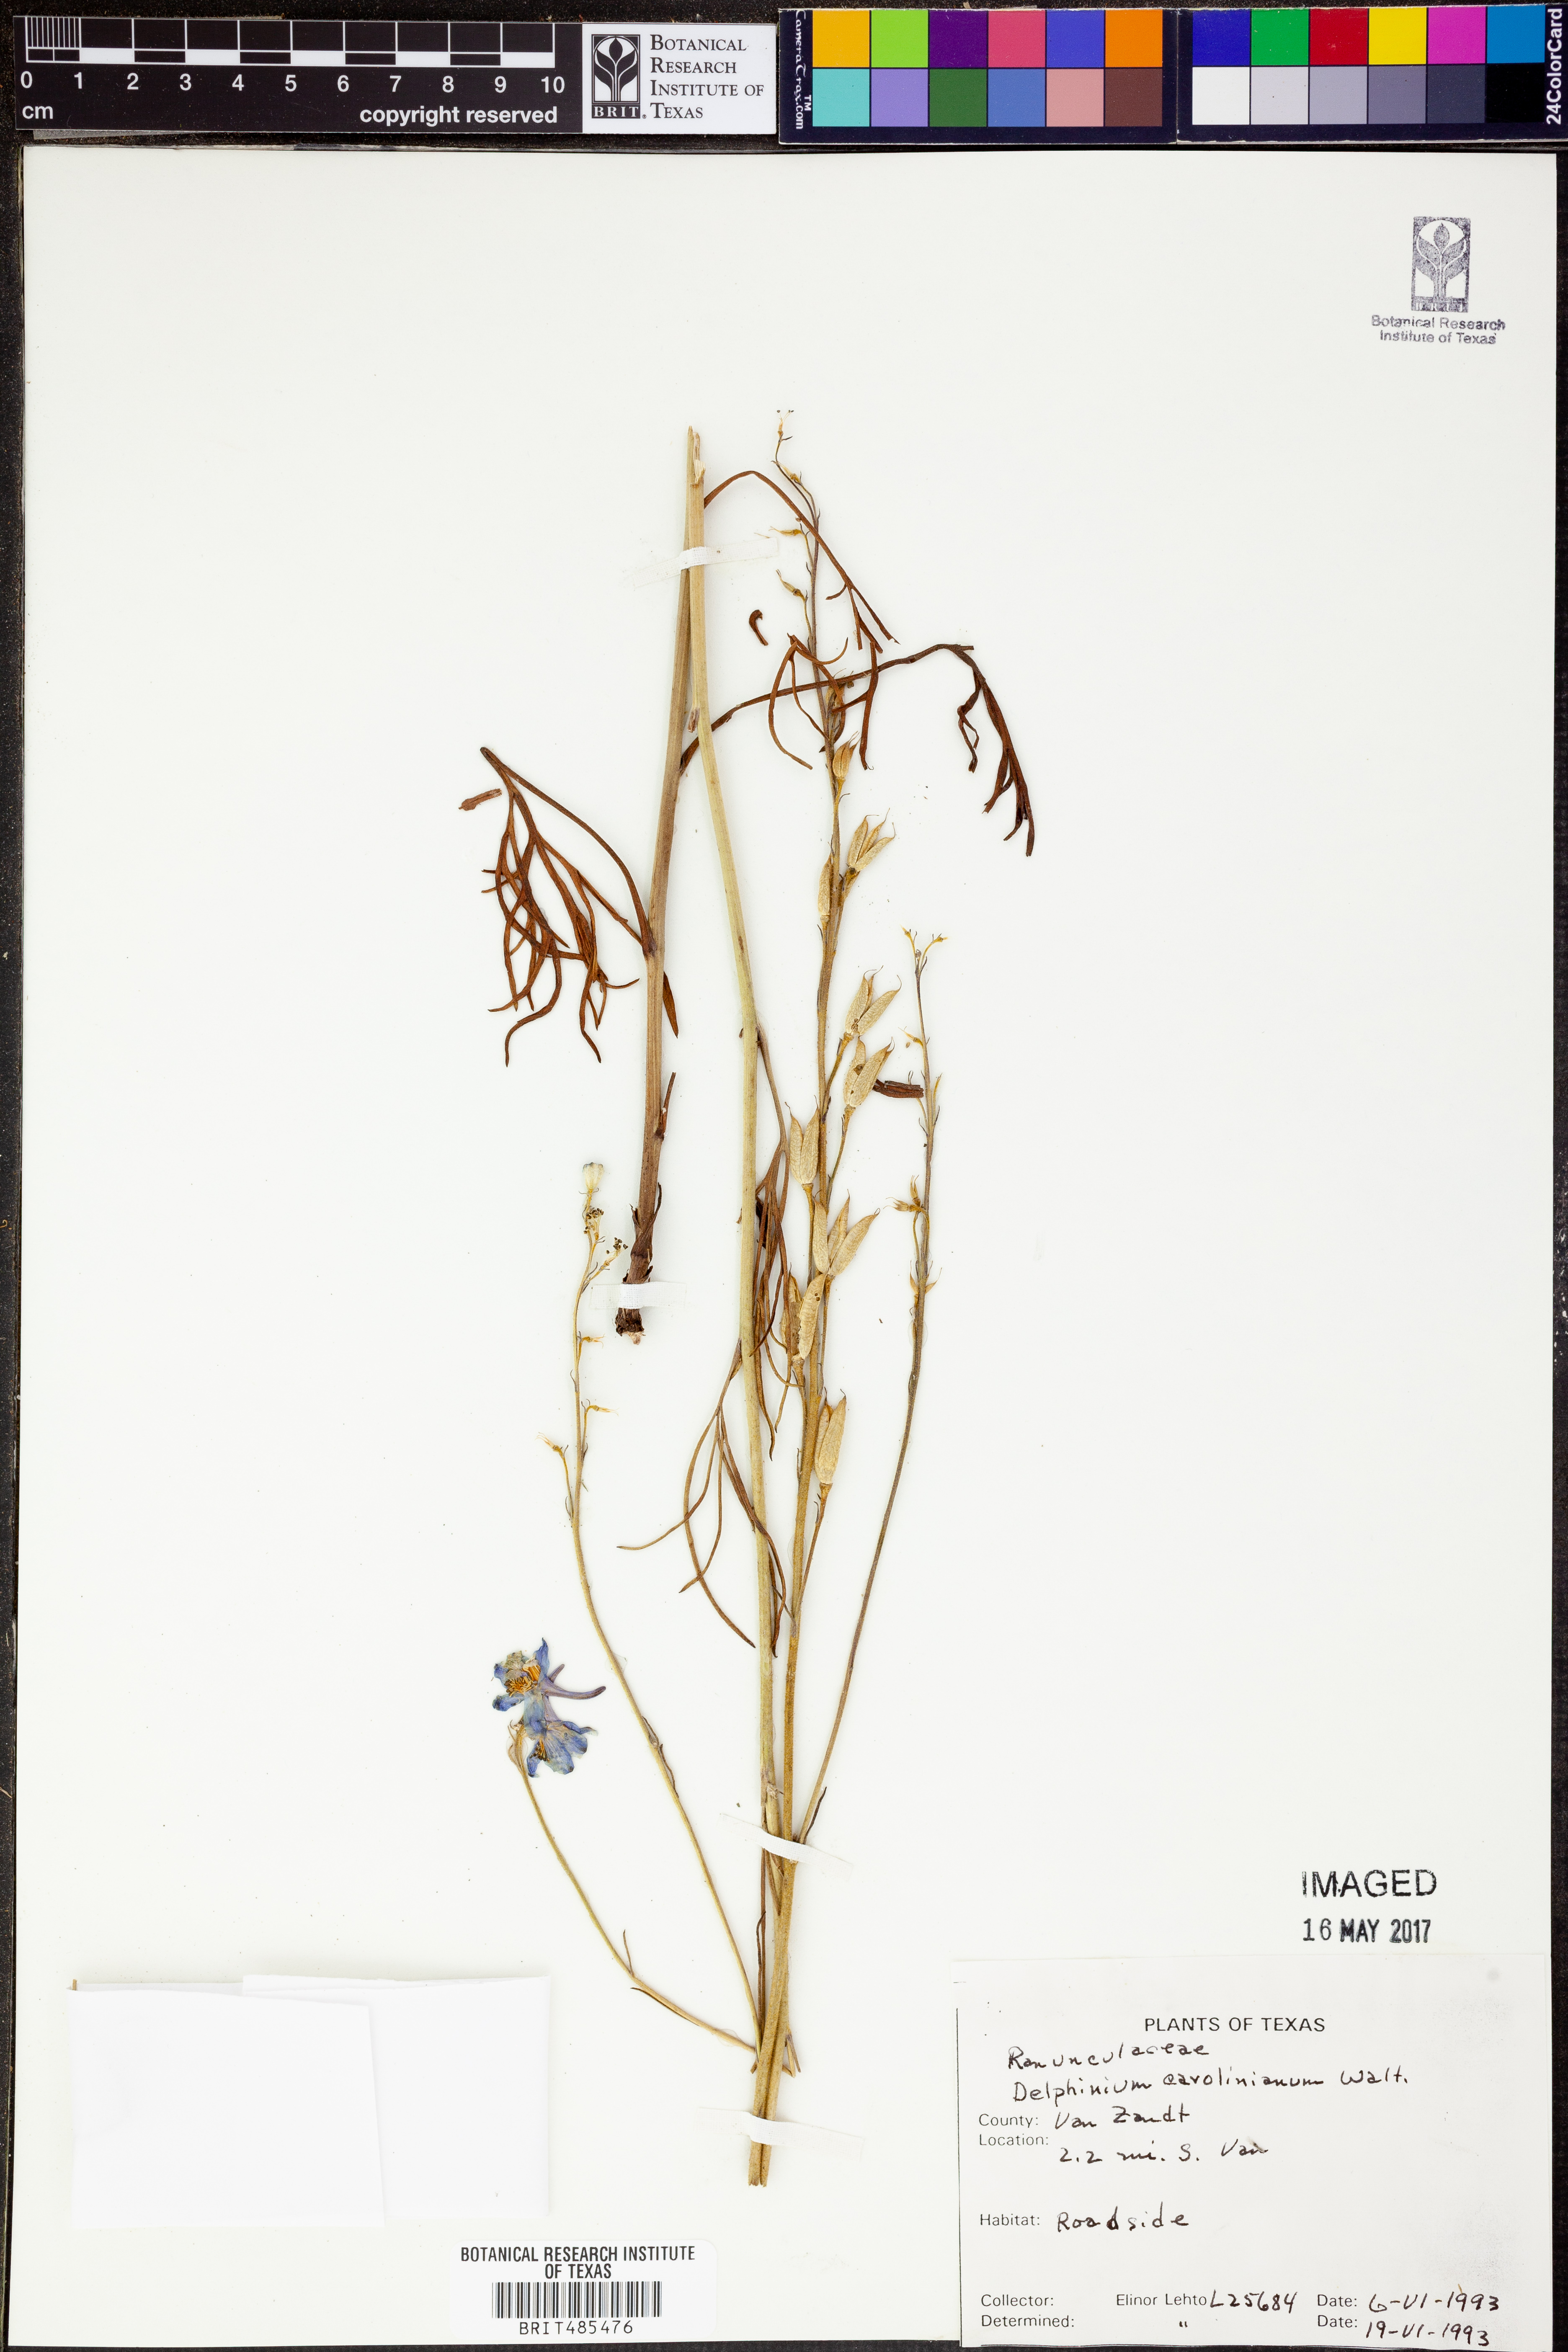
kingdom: Plantae
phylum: Tracheophyta
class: Magnoliopsida
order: Ranunculales
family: Ranunculaceae
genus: Delphinium
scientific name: Delphinium carolinianum
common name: Carolina larkspur
